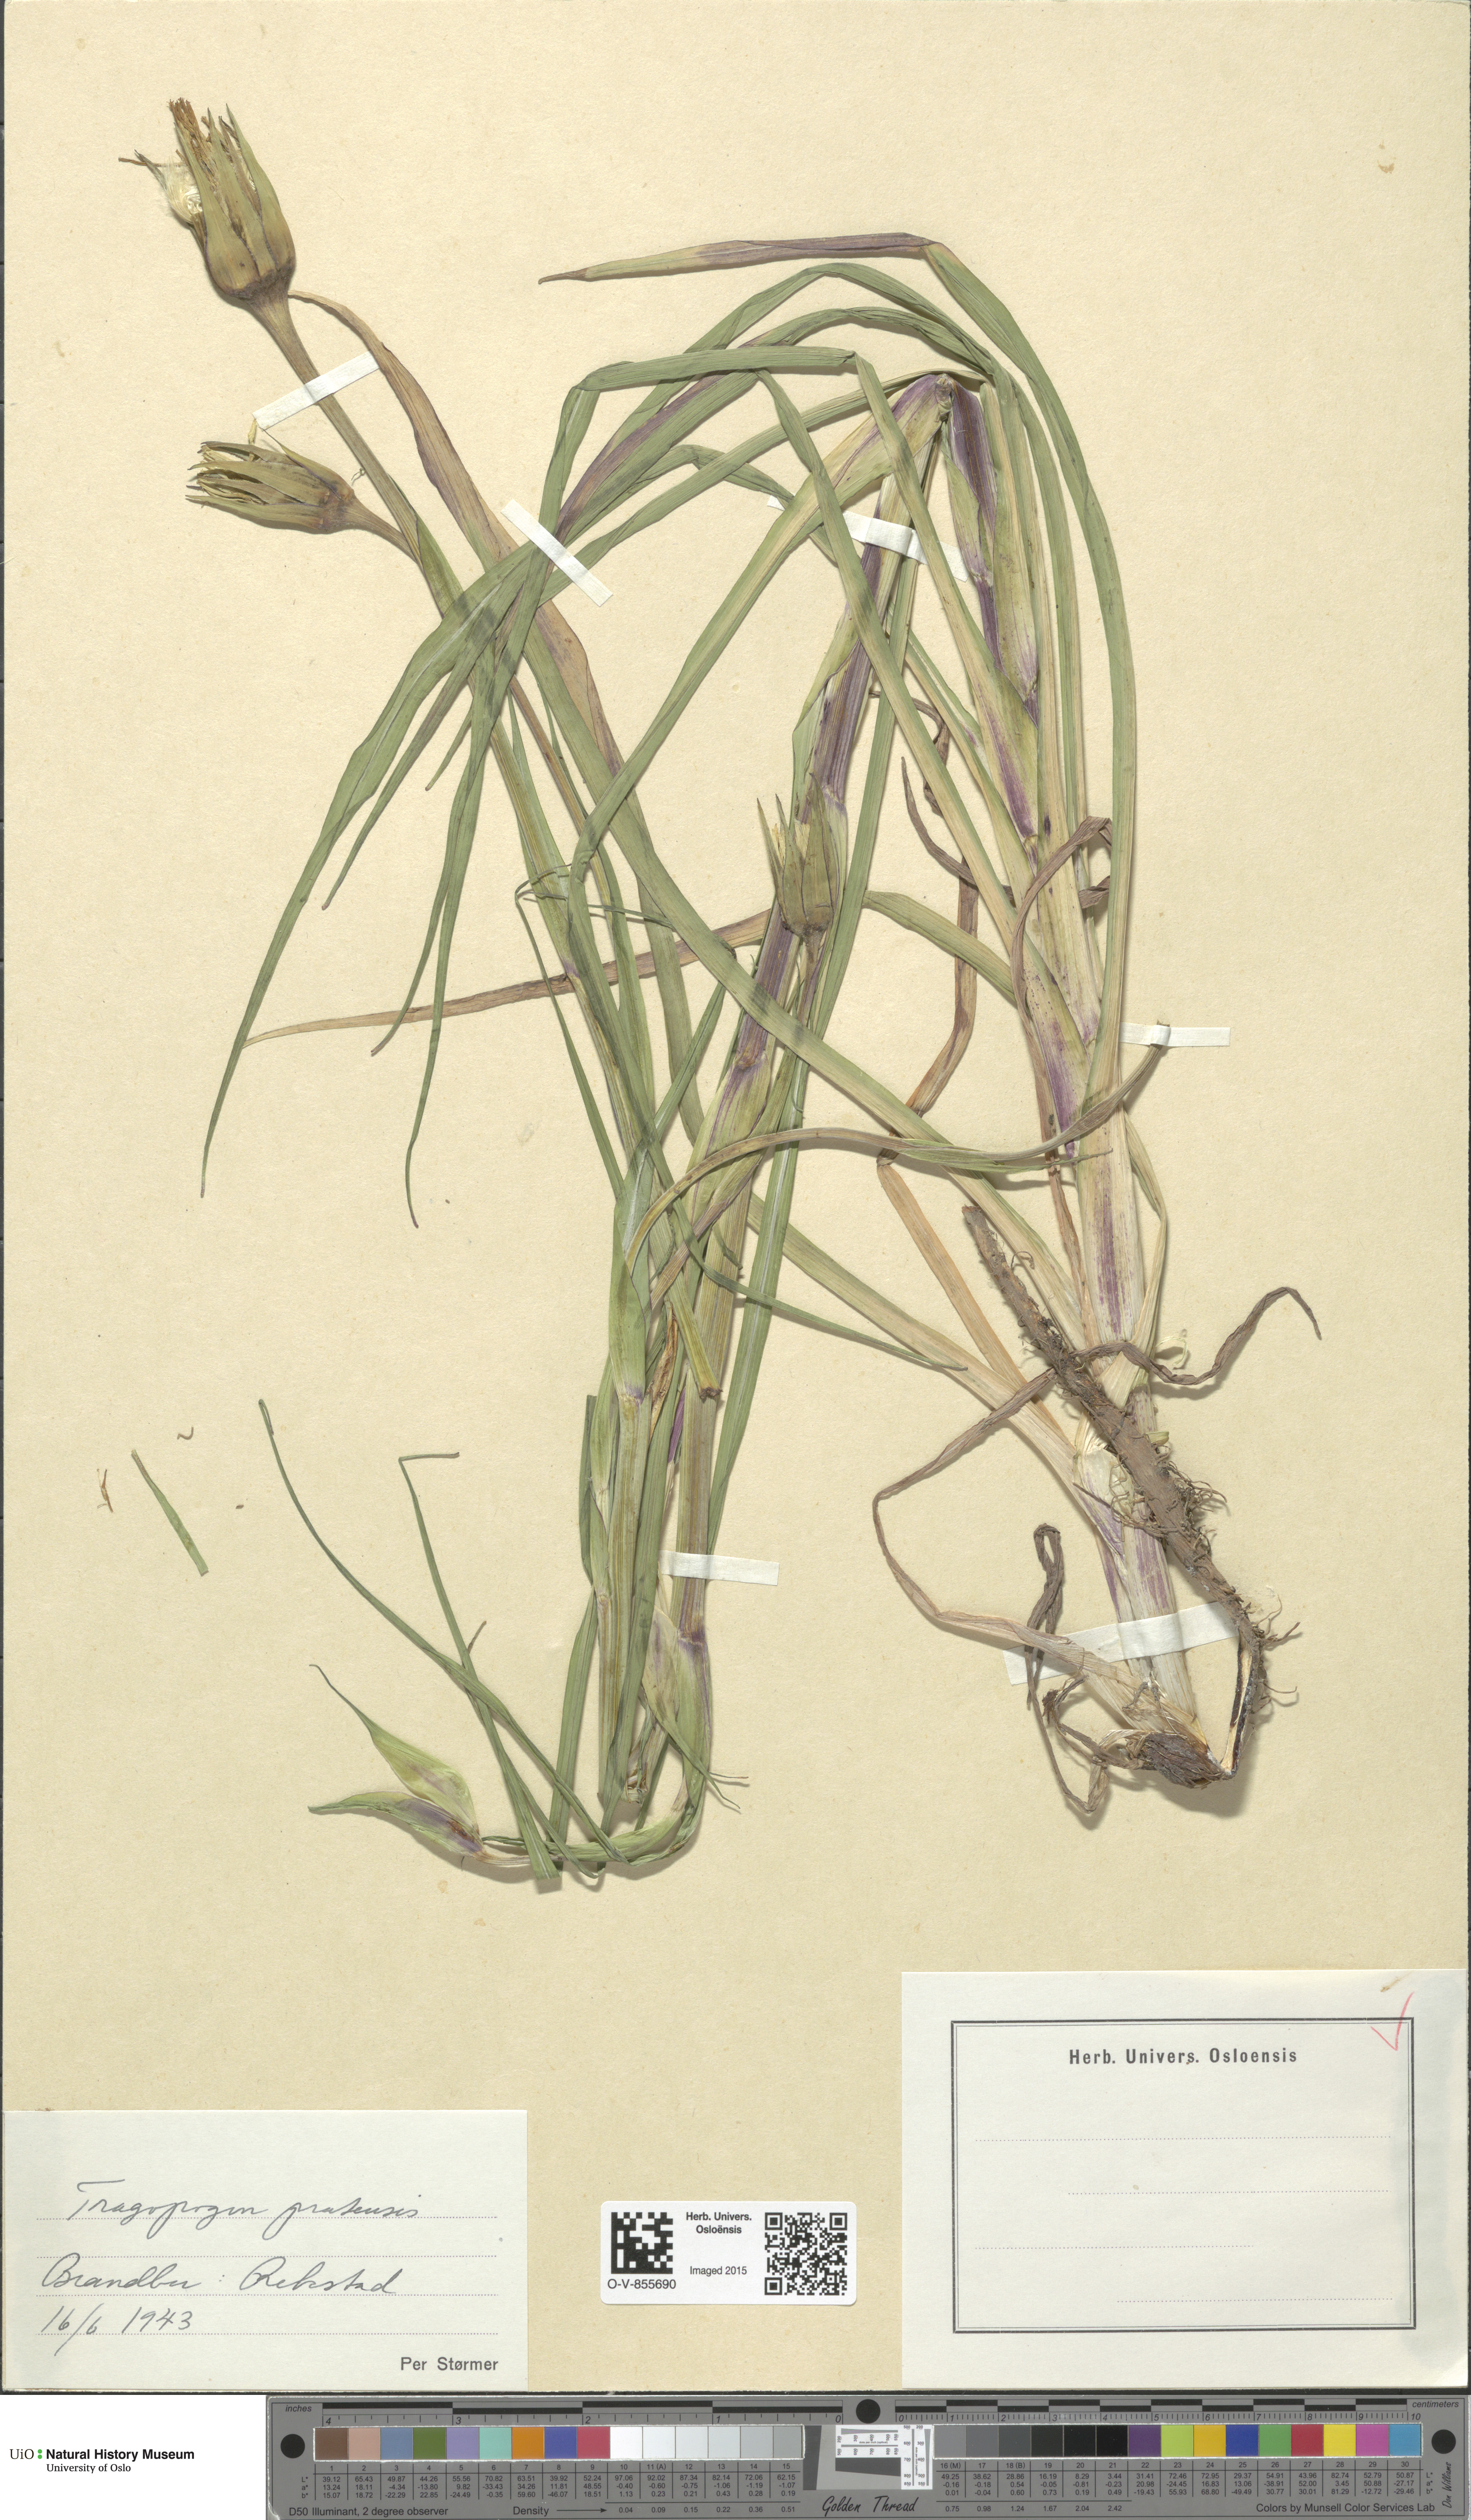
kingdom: Plantae
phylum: Tracheophyta
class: Magnoliopsida
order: Asterales
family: Asteraceae
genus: Tragopogon
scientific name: Tragopogon pratensis
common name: Goat's-beard
